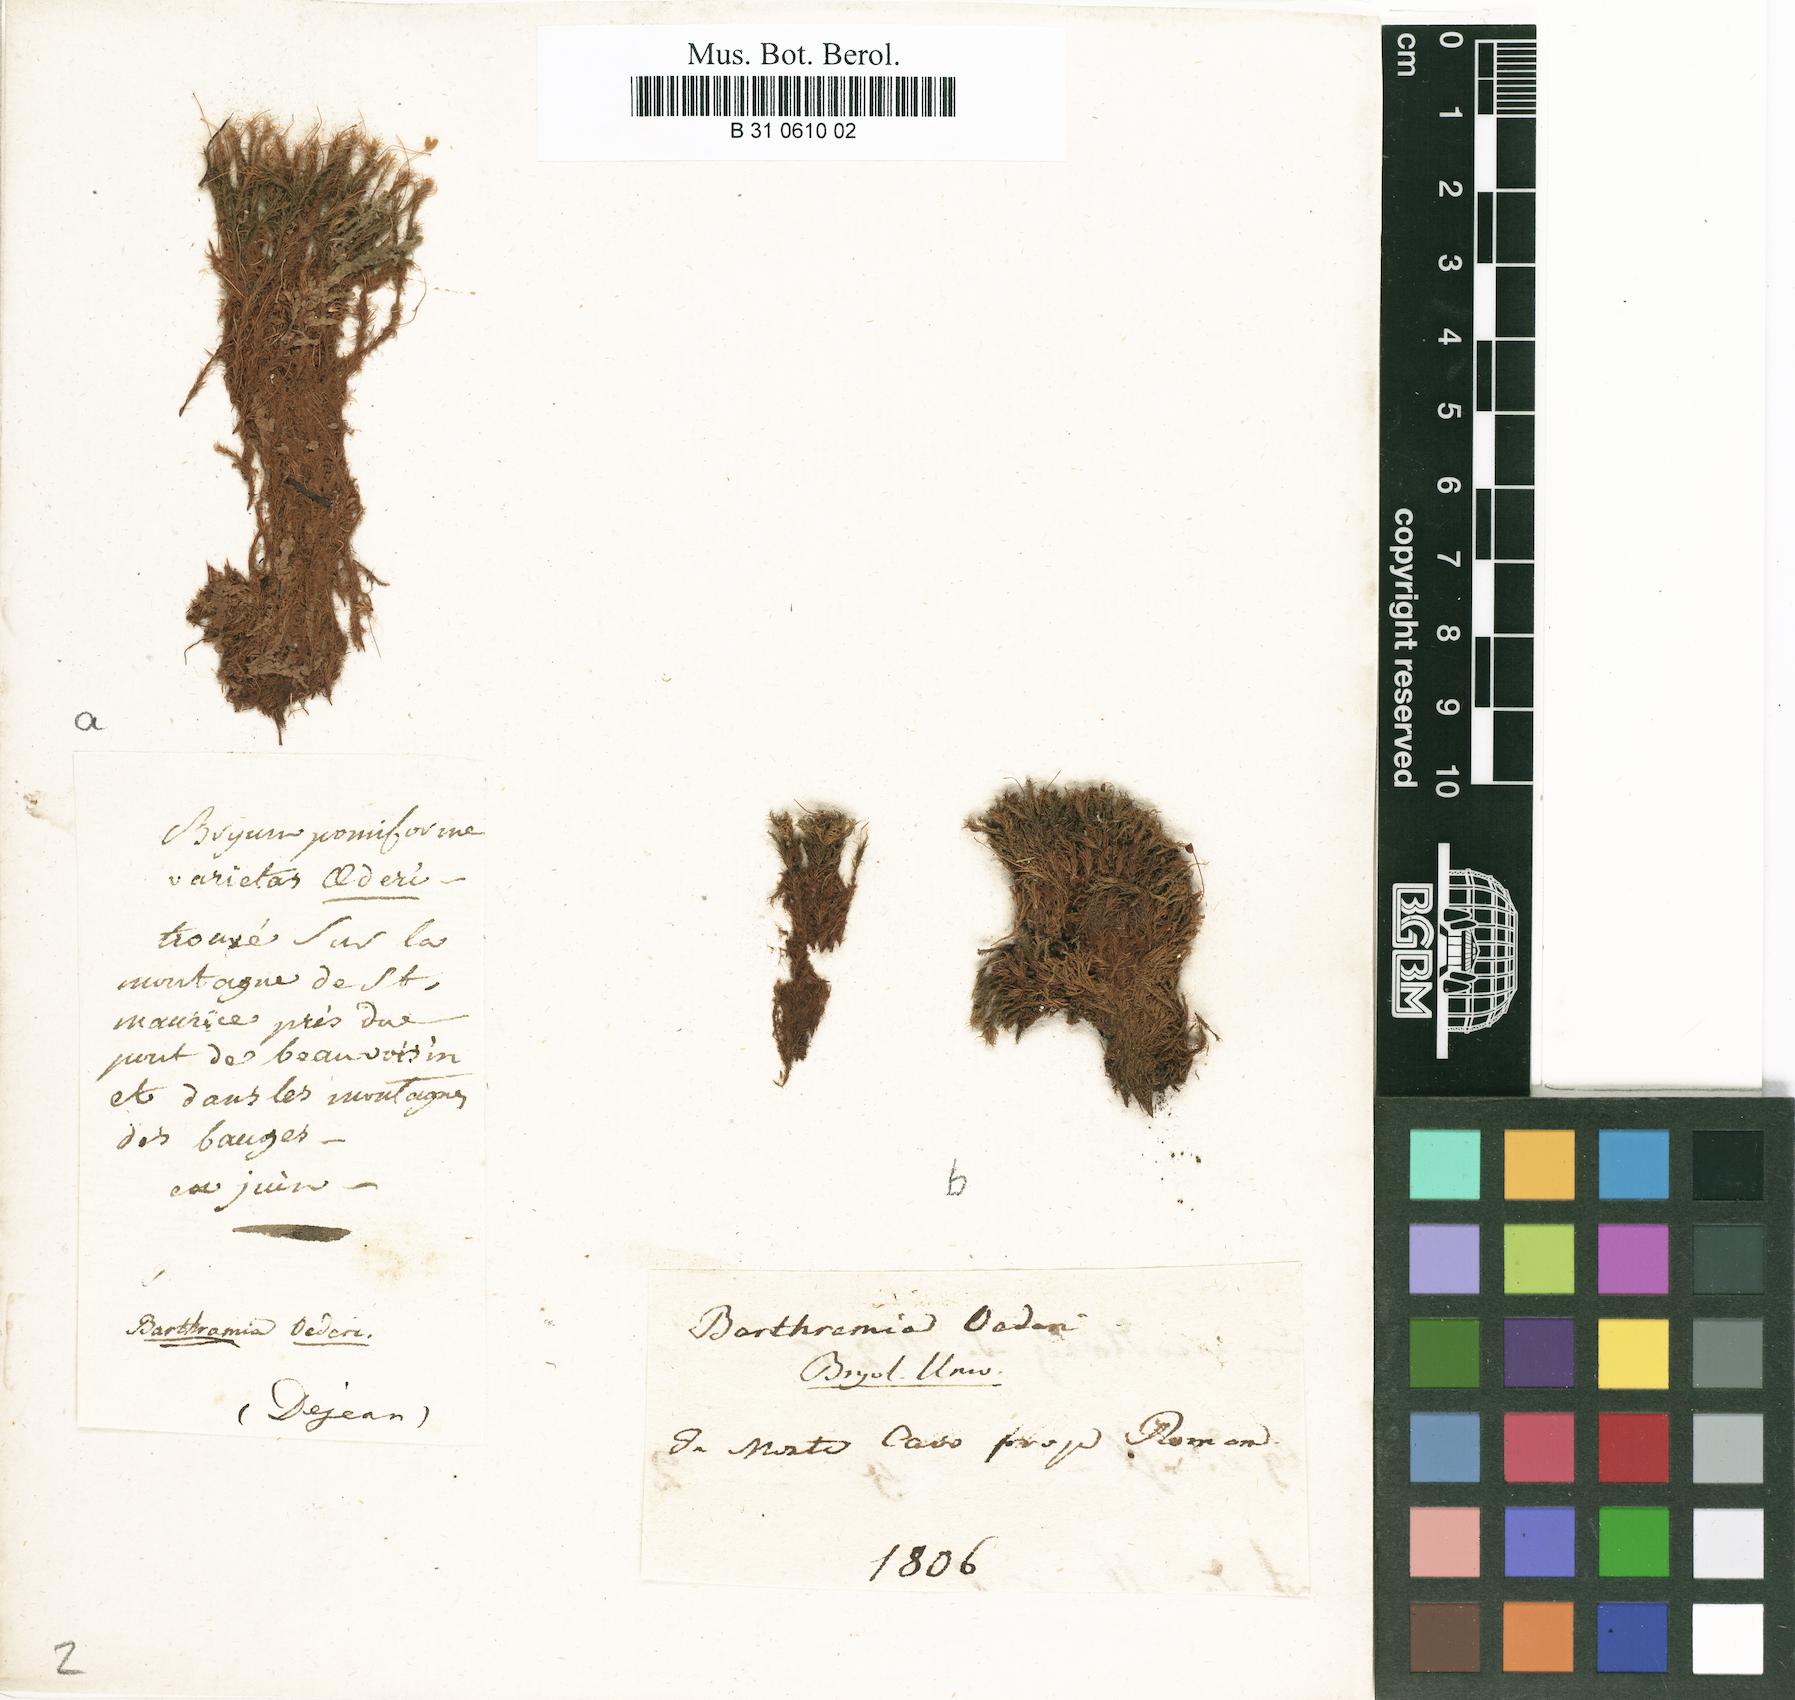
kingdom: Plantae
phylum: Bryophyta
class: Bryopsida
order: Bartramiales
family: Bartramiaceae
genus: Plagiopus
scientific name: Plagiopus oederianus
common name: Oeder's apple moss
